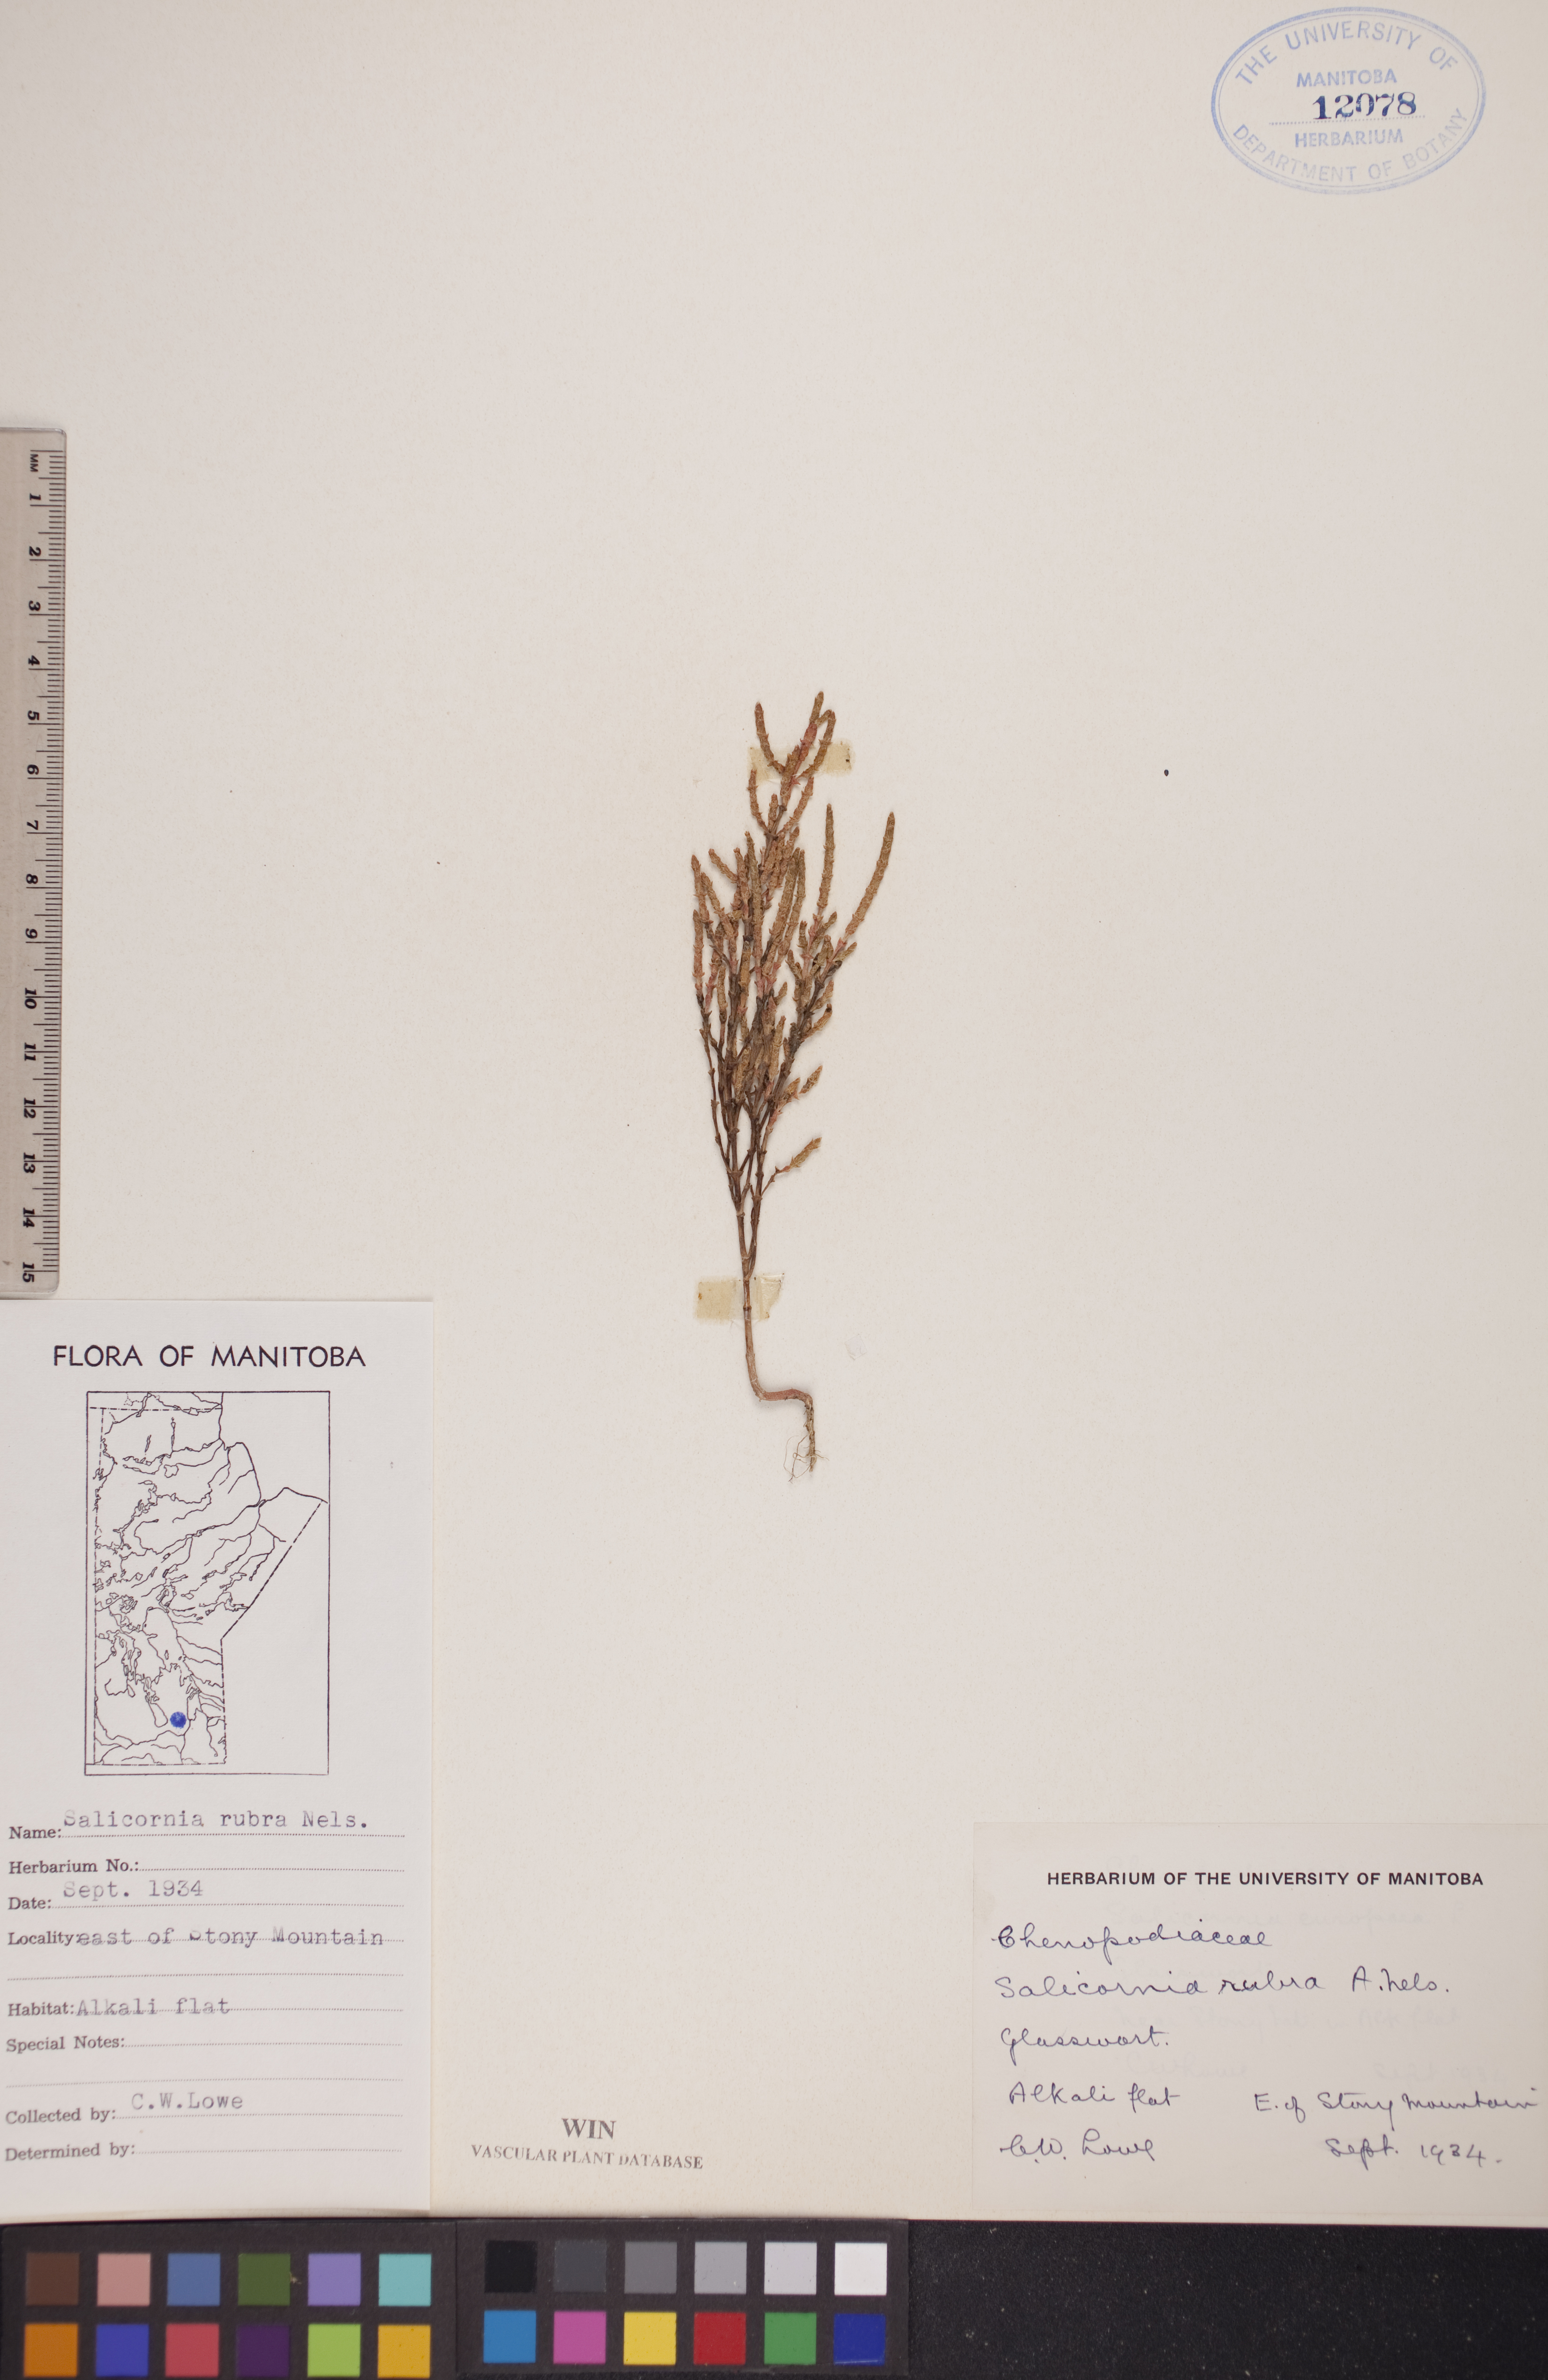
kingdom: Plantae
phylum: Tracheophyta
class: Magnoliopsida
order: Caryophyllales
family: Amaranthaceae
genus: Salicornia
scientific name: Salicornia rubra
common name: Red glasswort
